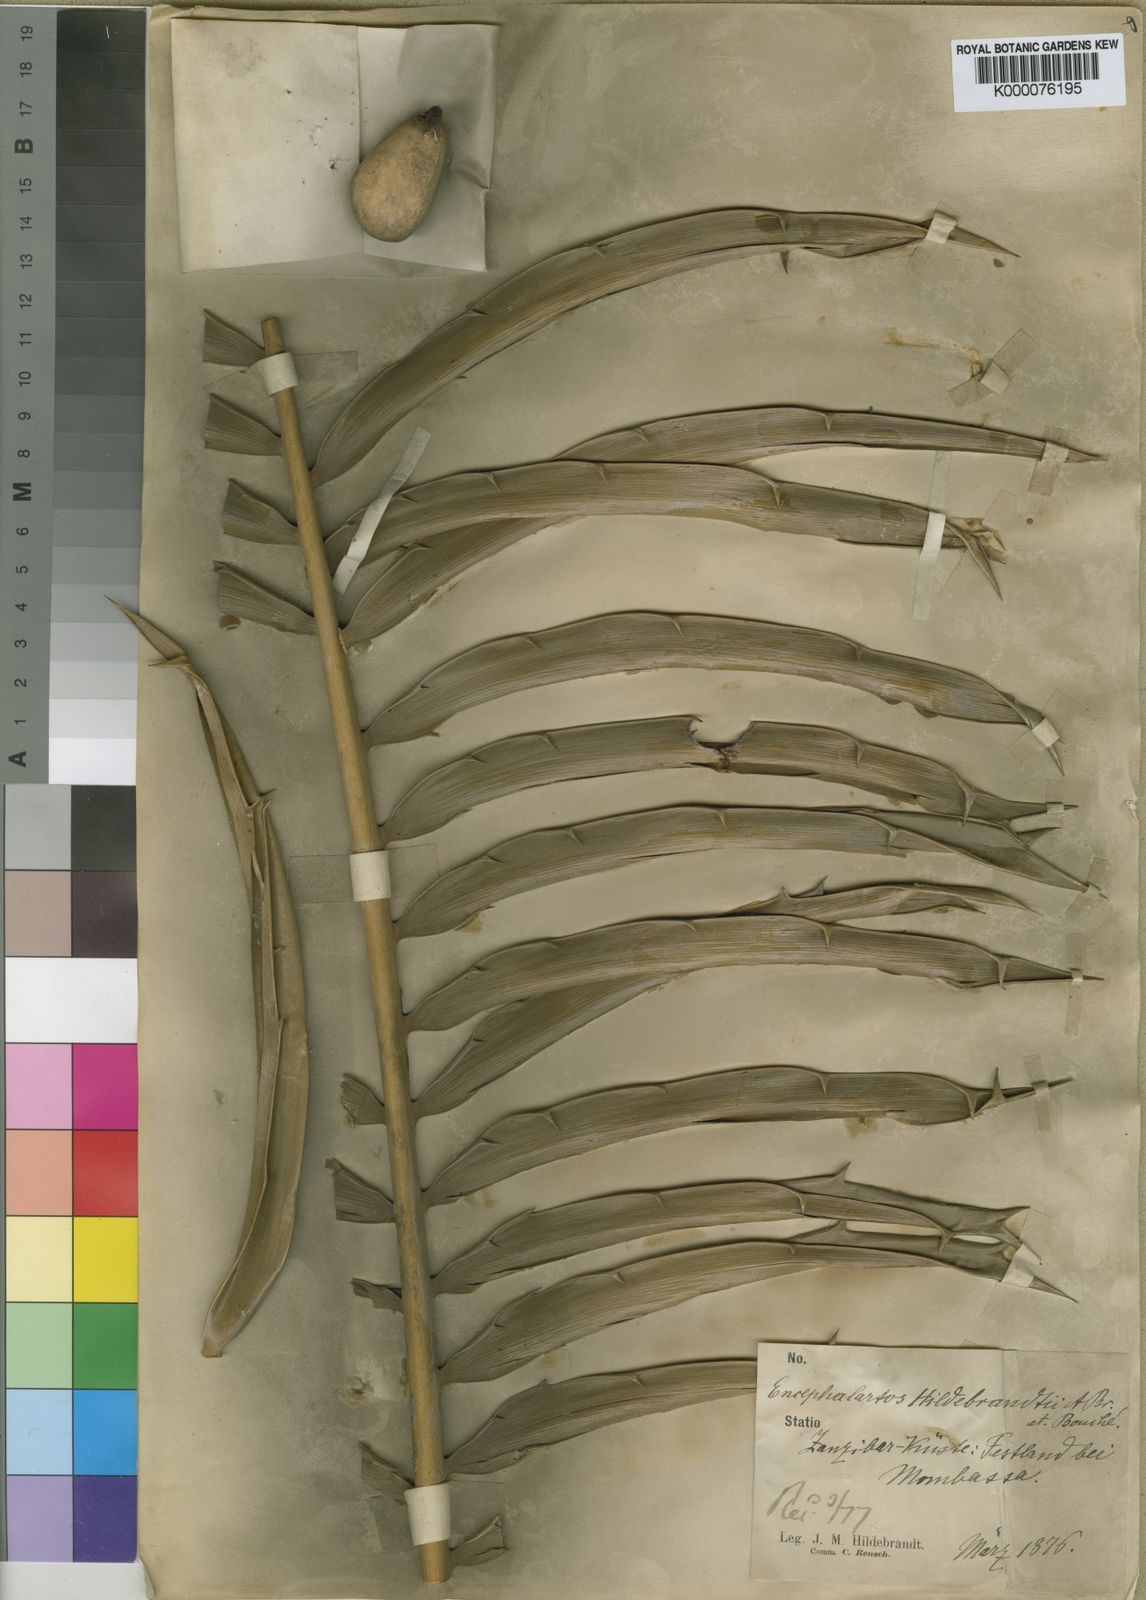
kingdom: Plantae
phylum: Tracheophyta
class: Cycadopsida
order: Cycadales
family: Zamiaceae
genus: Encephalartos
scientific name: Encephalartos
